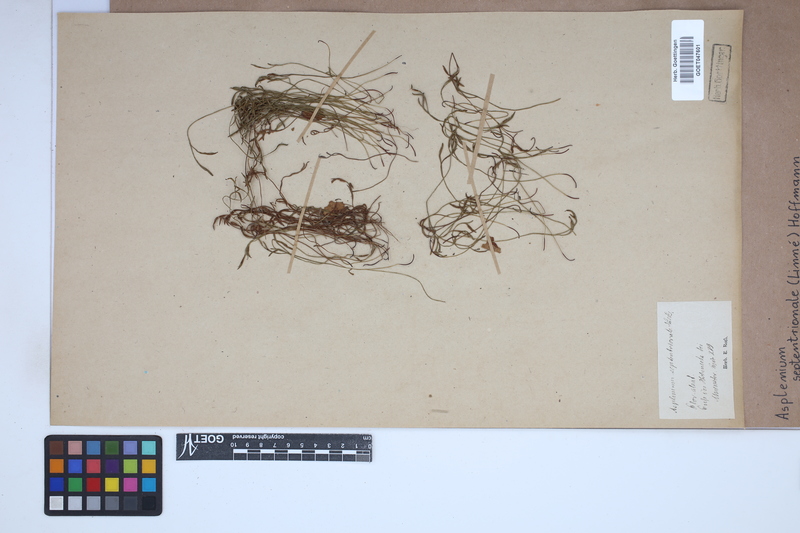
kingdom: Plantae
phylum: Tracheophyta
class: Polypodiopsida
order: Polypodiales
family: Aspleniaceae
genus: Asplenium
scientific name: Asplenium septentrionale
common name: Forked spleenwort
